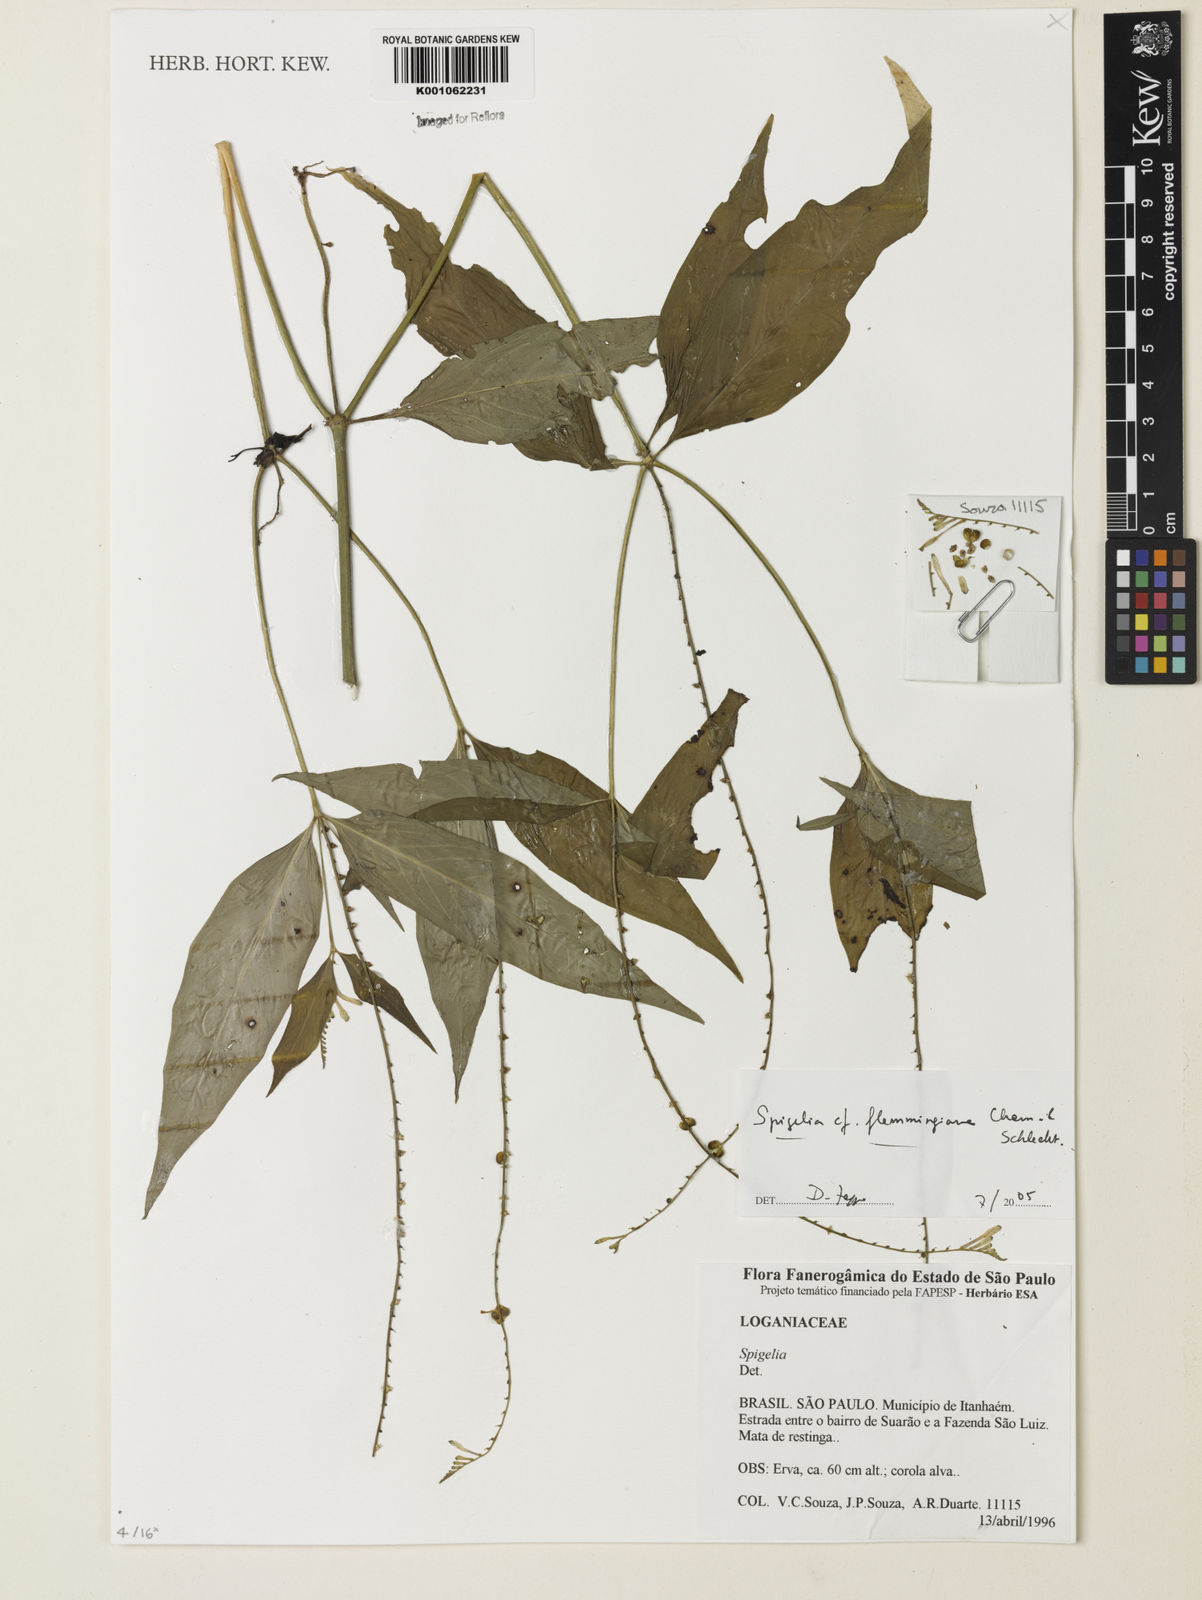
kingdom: Plantae
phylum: Tracheophyta
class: Magnoliopsida
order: Gentianales
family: Loganiaceae
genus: Spigelia
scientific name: Spigelia
